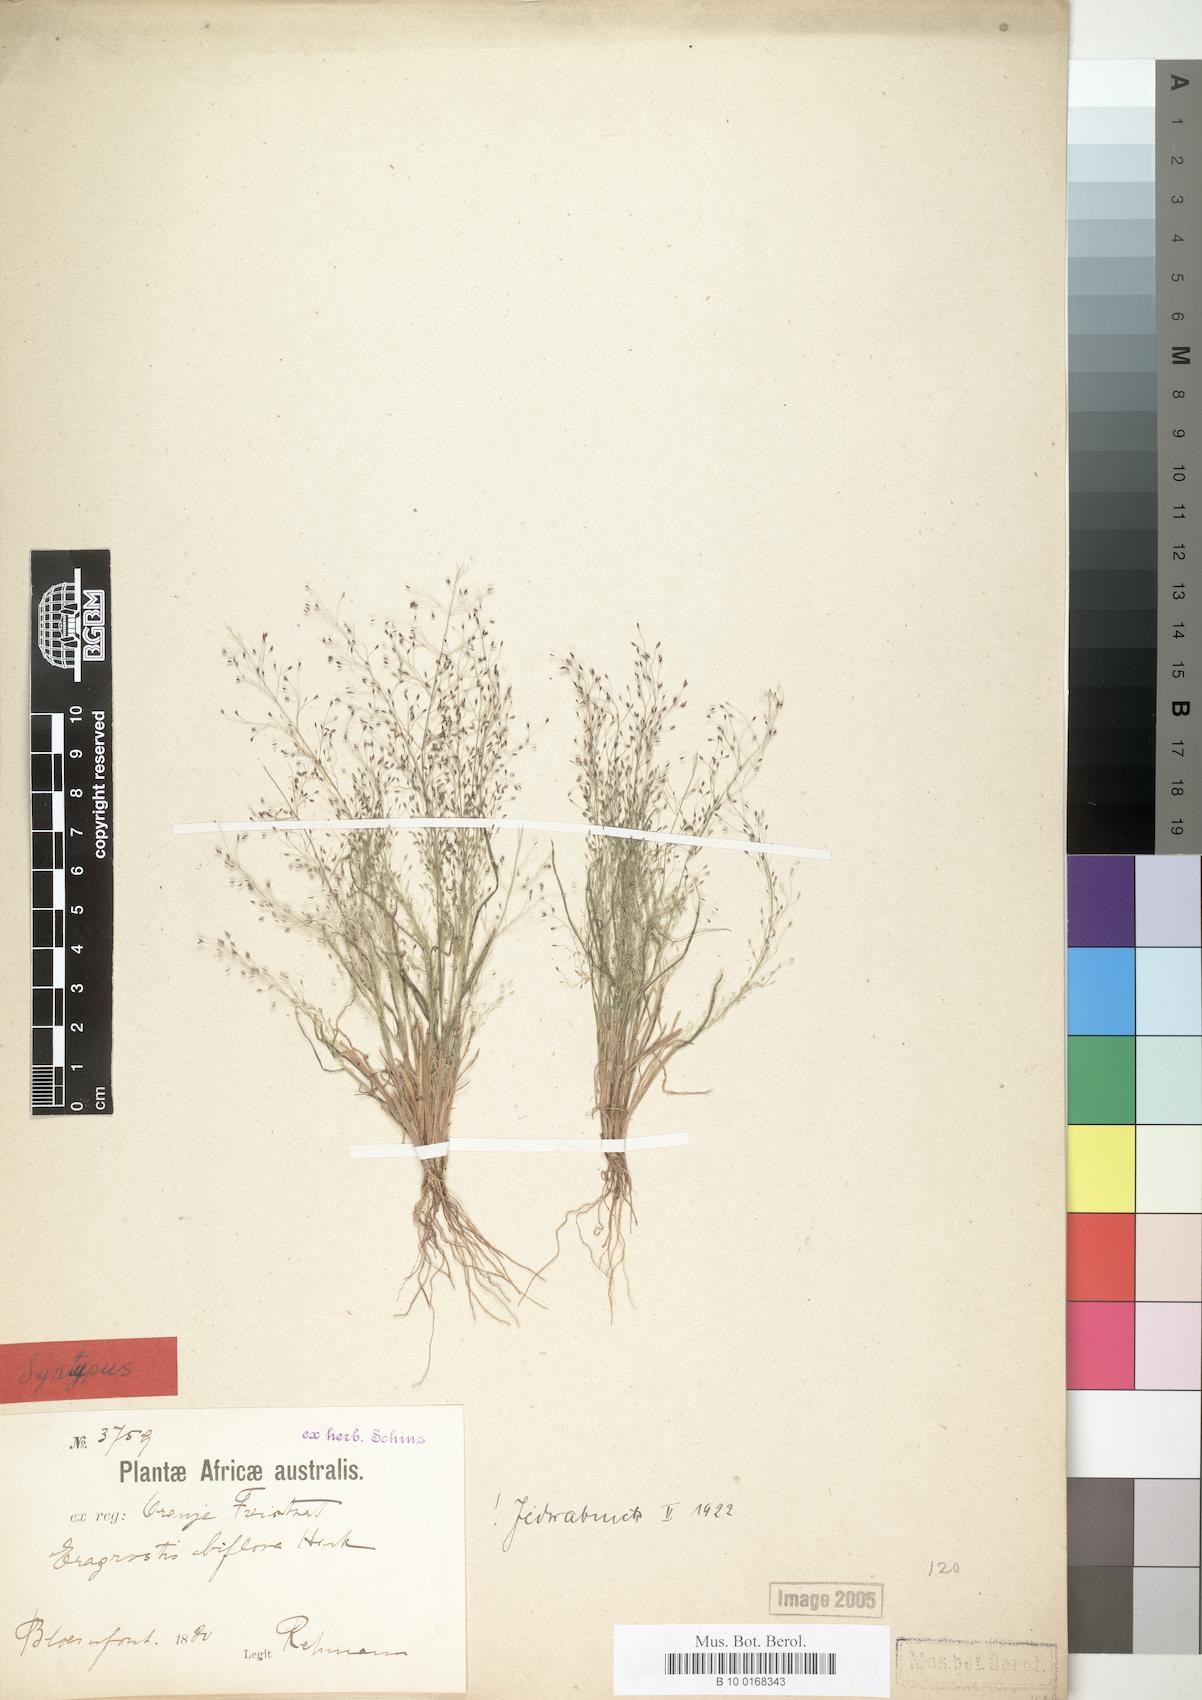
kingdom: Plantae
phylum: Tracheophyta
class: Liliopsida
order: Poales
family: Poaceae
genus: Eragrostis
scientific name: Eragrostis biflora
